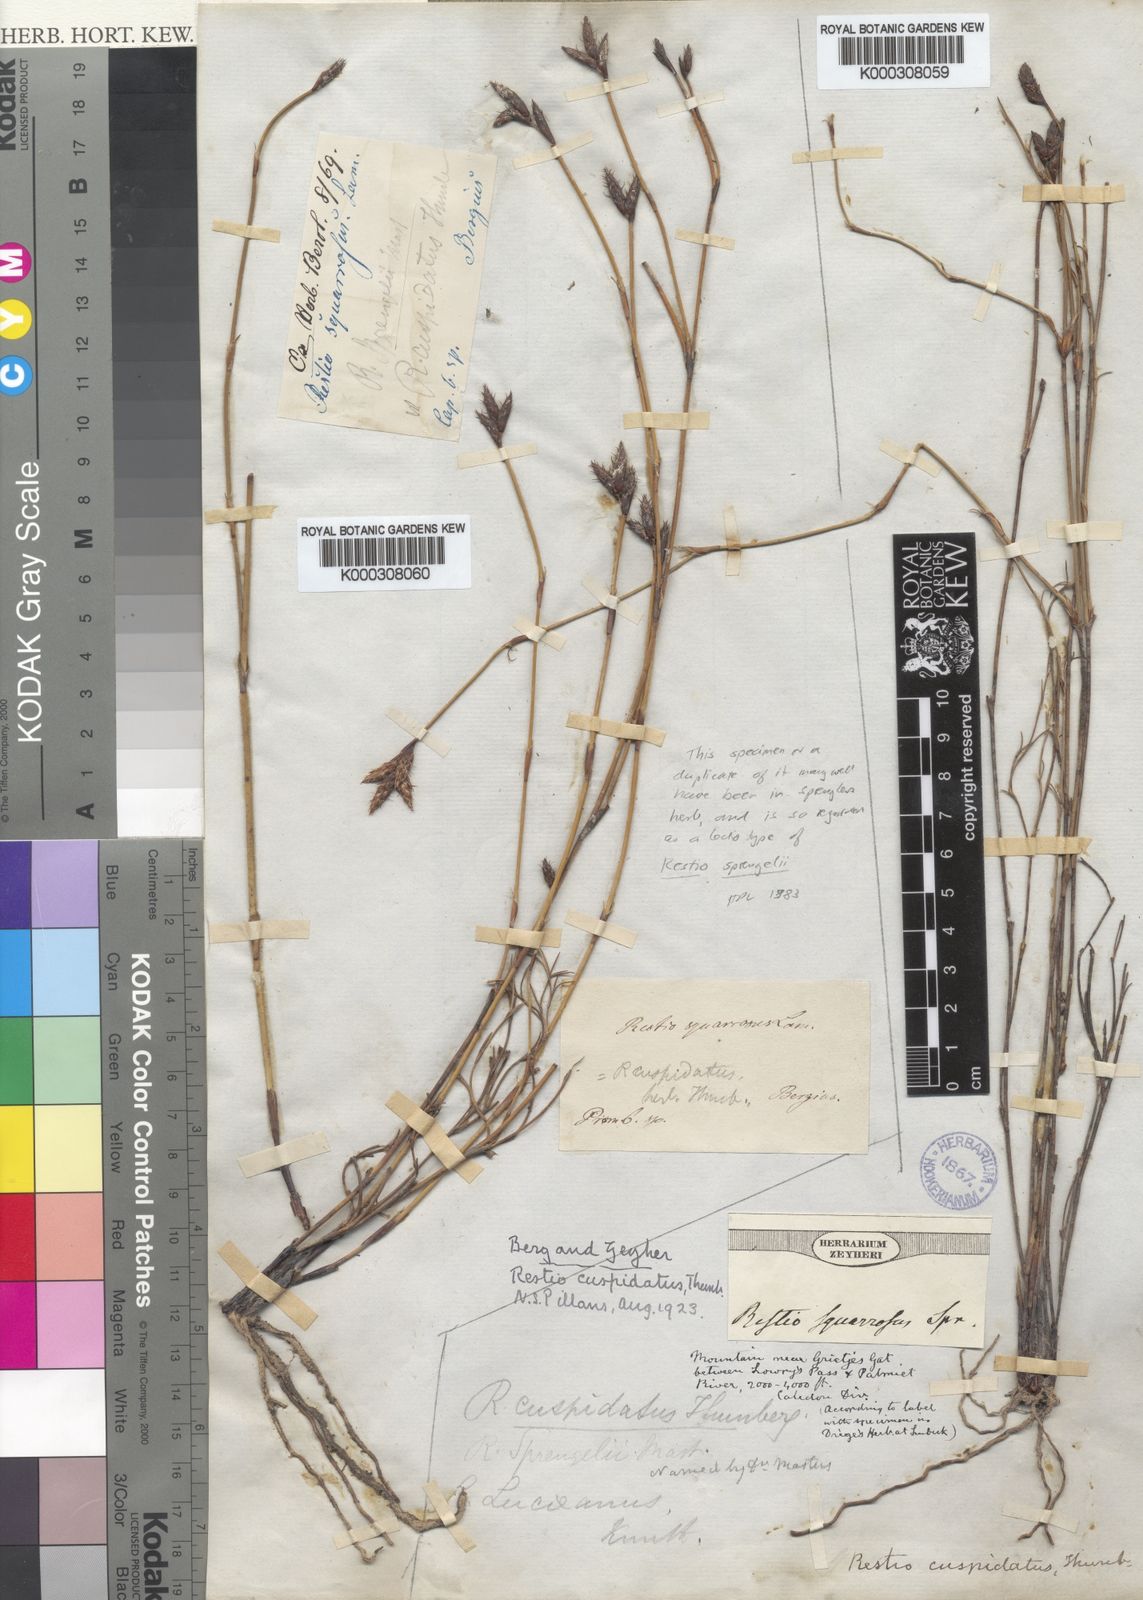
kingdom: Plantae
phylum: Tracheophyta
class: Liliopsida
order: Poales
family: Restionaceae
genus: Restio
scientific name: Restio capensis
